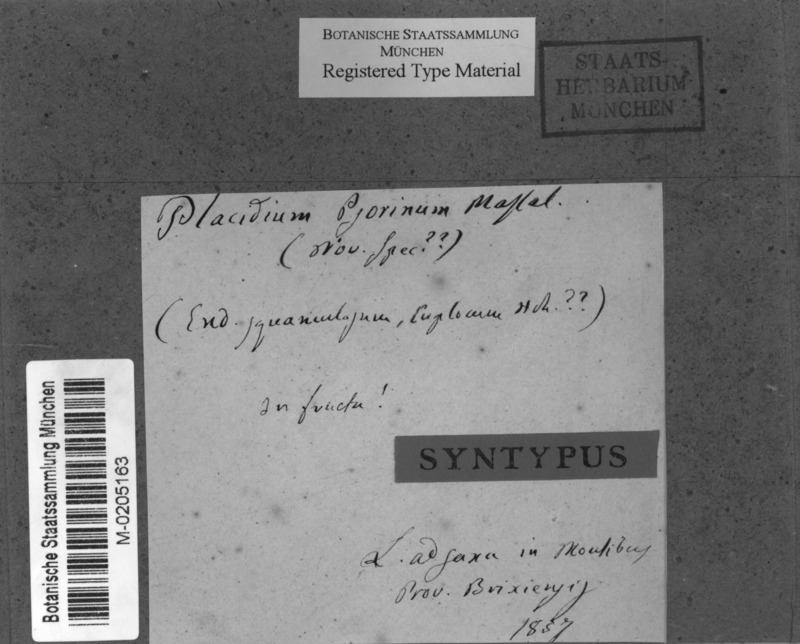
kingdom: Fungi
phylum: Ascomycota
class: Eurotiomycetes
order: Verrucariales
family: Verrucariaceae
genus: Placidium
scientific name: Placidium
